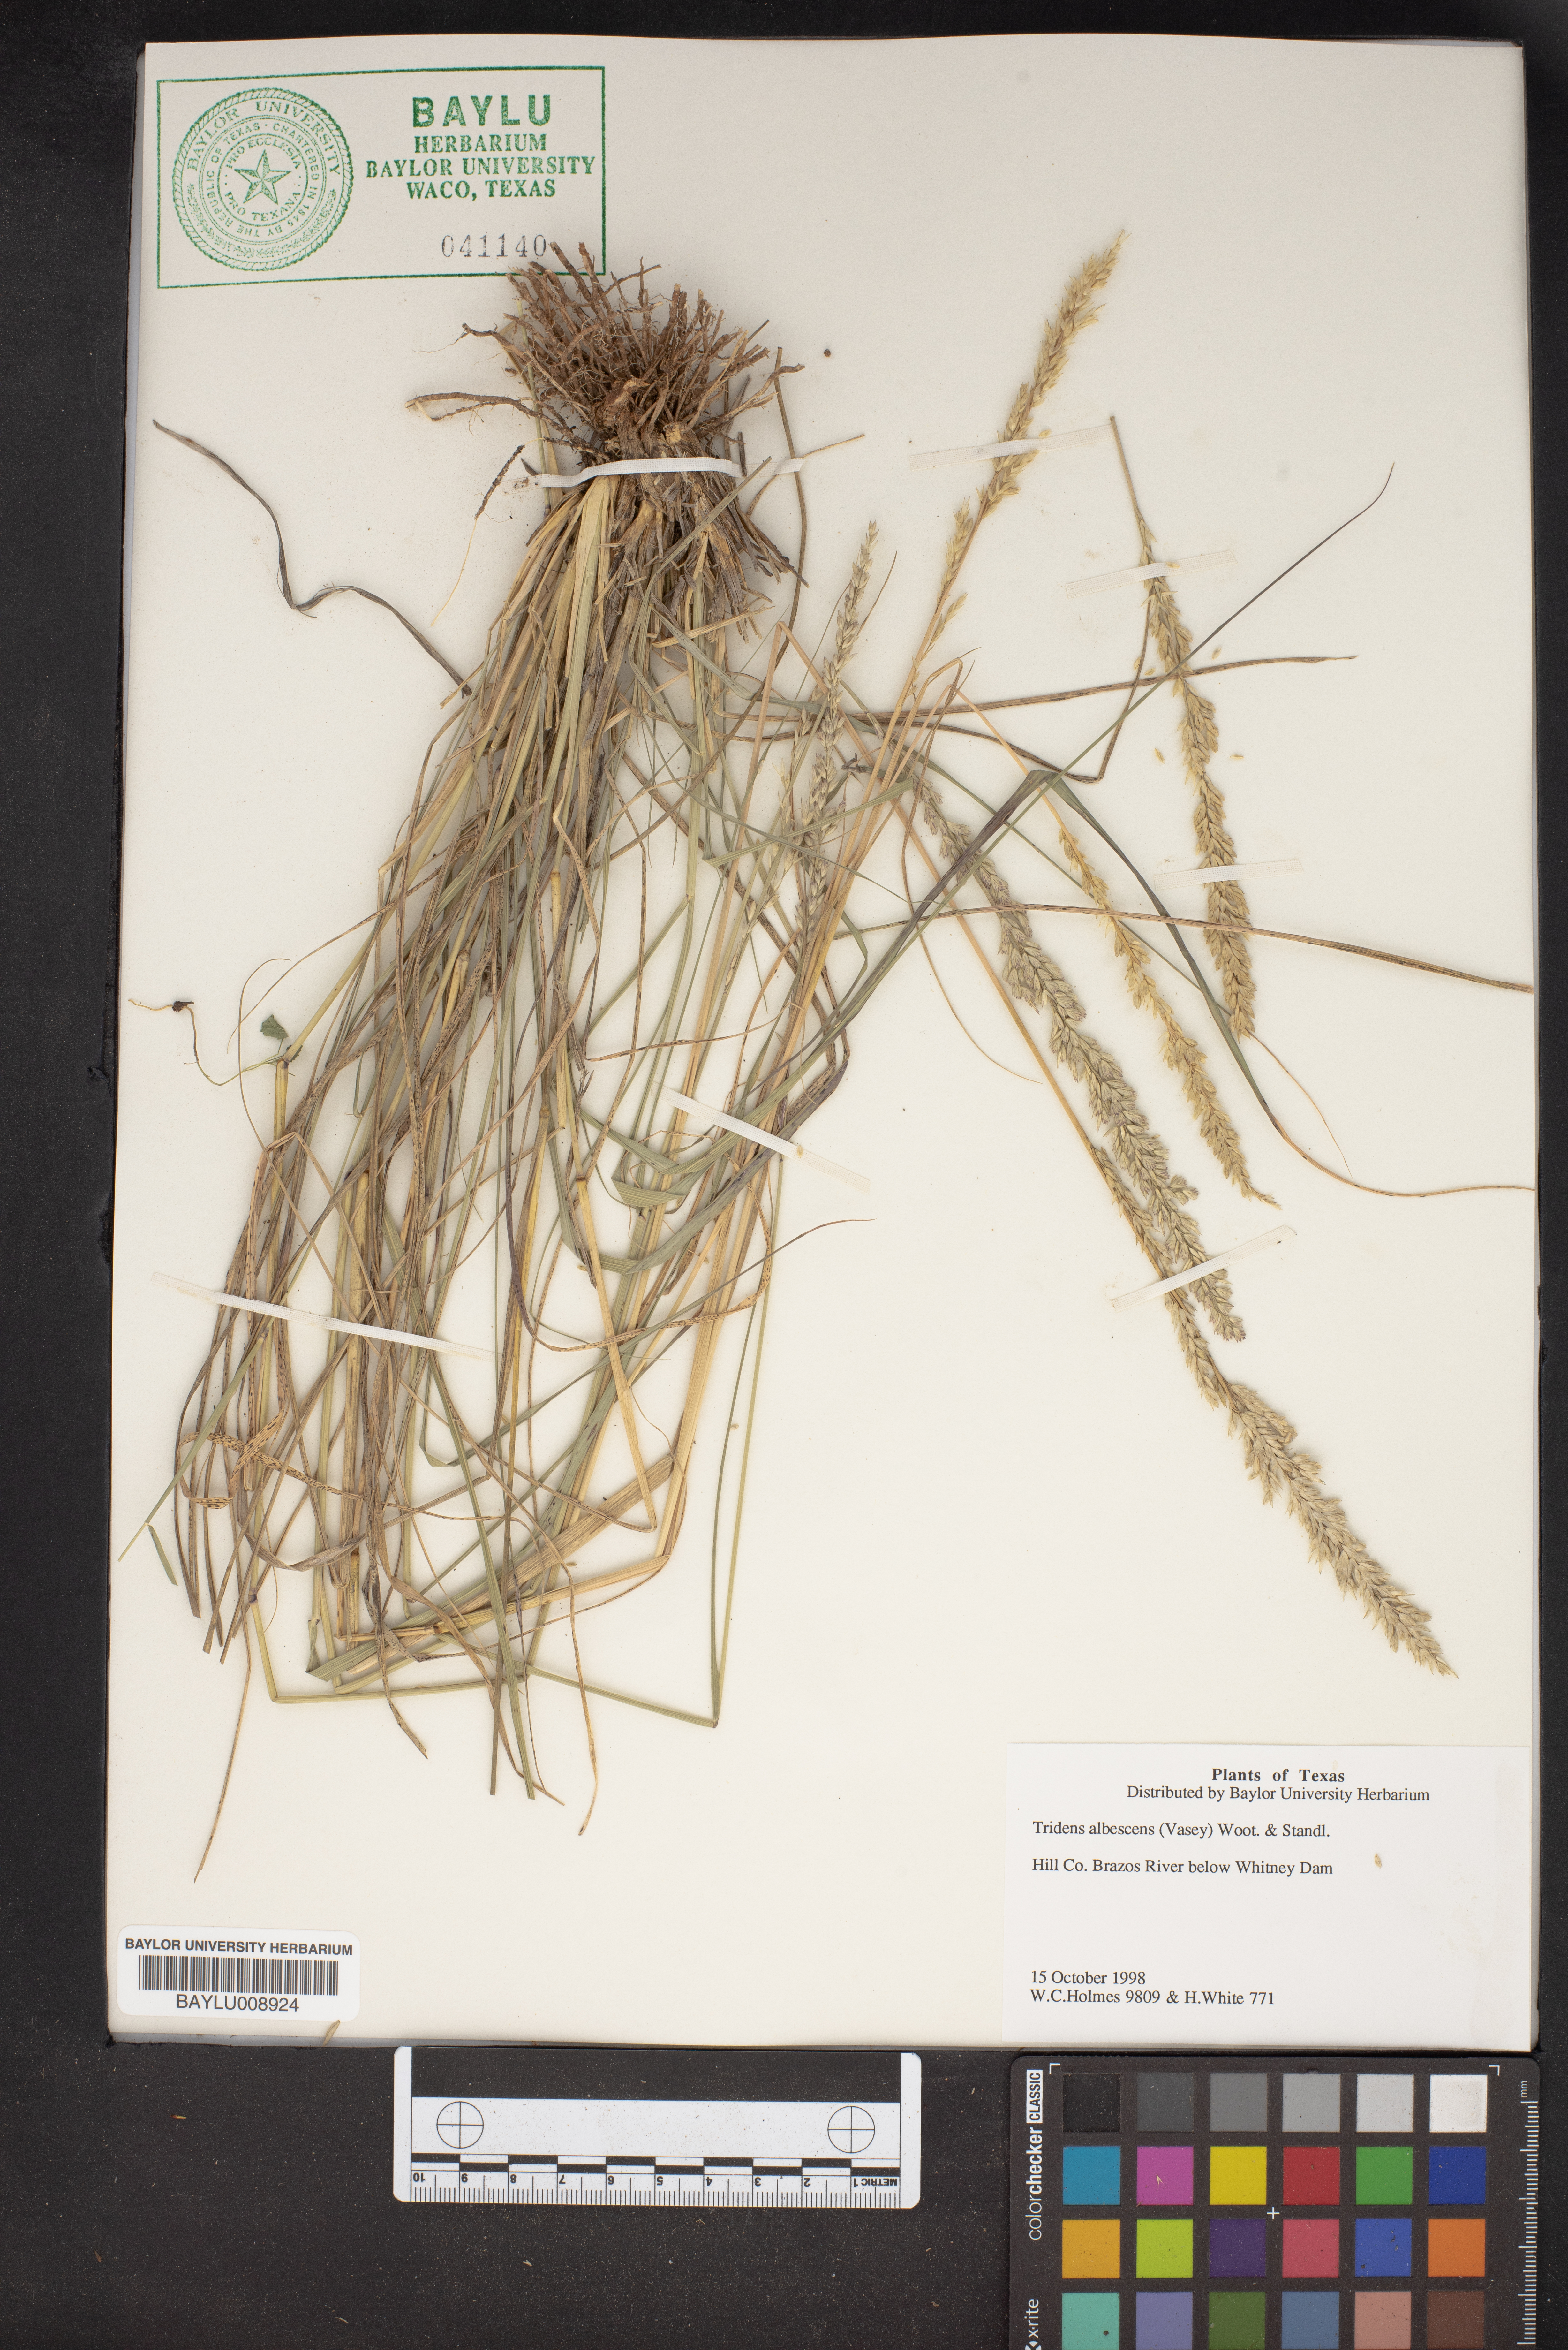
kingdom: Plantae
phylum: Tracheophyta
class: Liliopsida
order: Poales
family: Poaceae
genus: Tridens
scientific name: Tridens albescens
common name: White tridens
